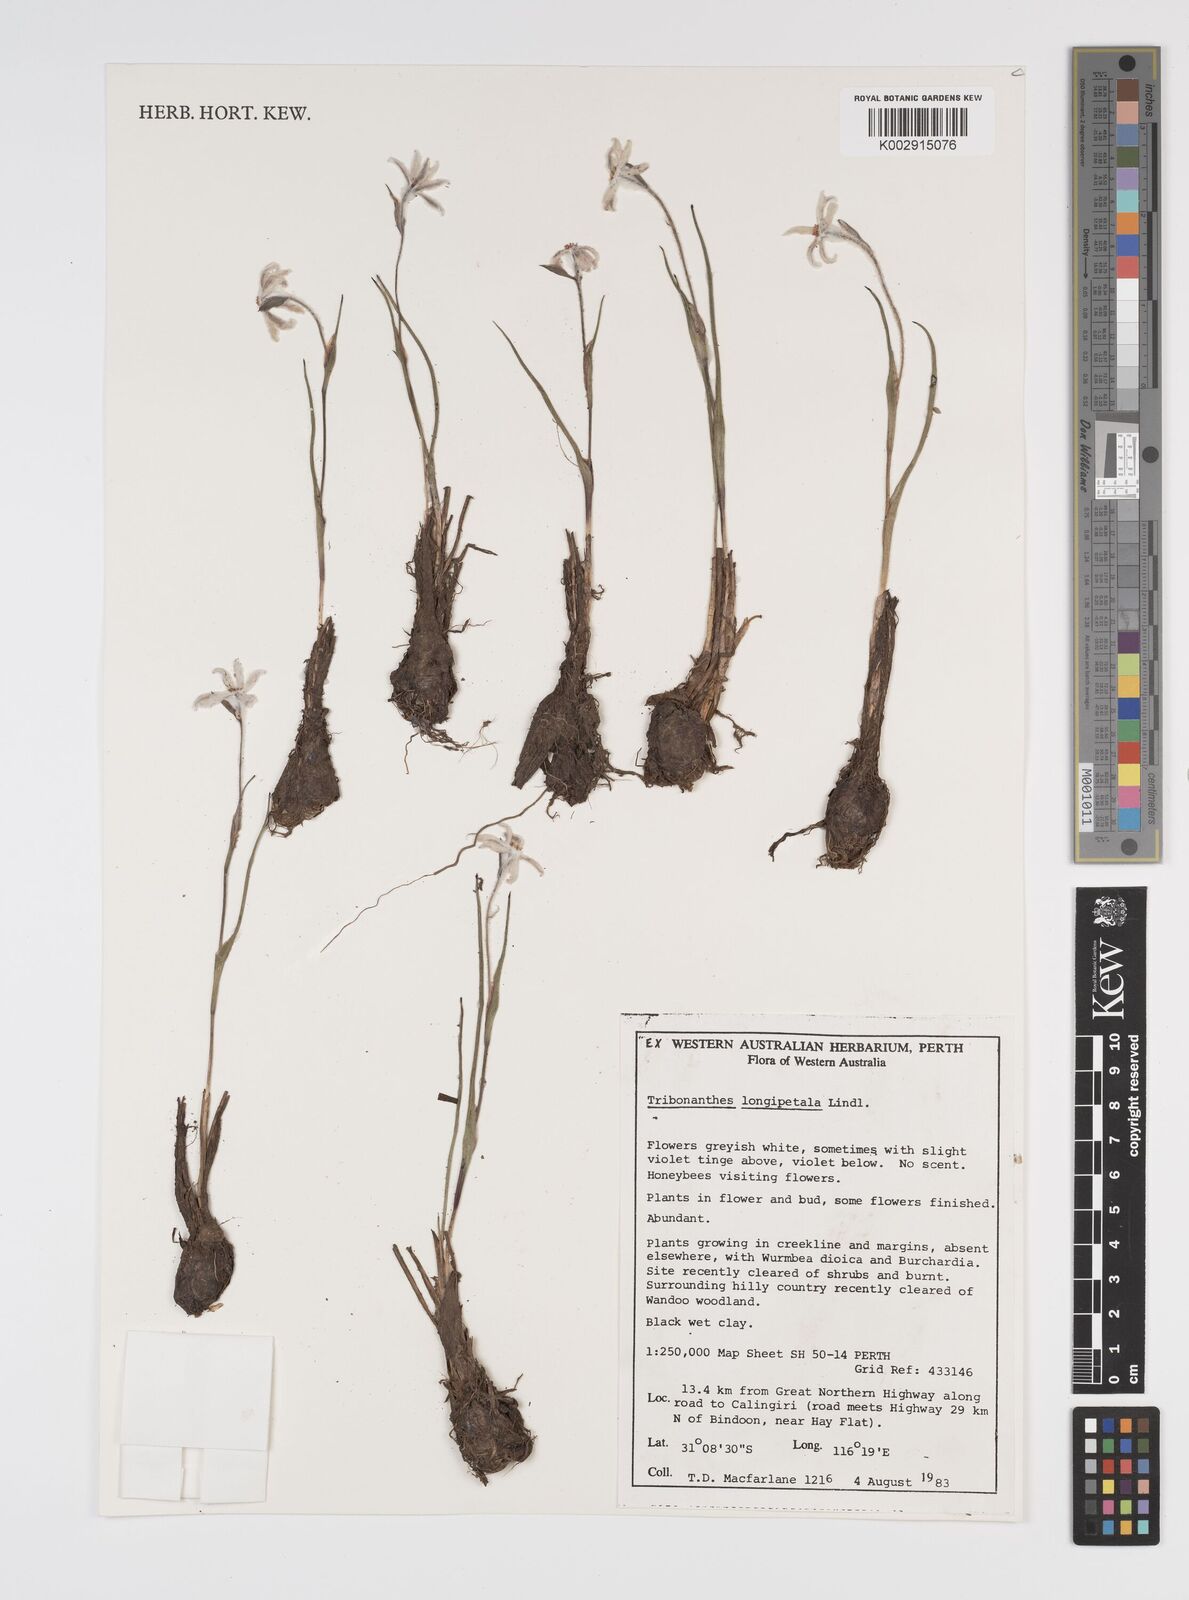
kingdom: Plantae
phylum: Tracheophyta
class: Liliopsida
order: Commelinales
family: Haemodoraceae
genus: Tribonanthes
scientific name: Tribonanthes longipetala
